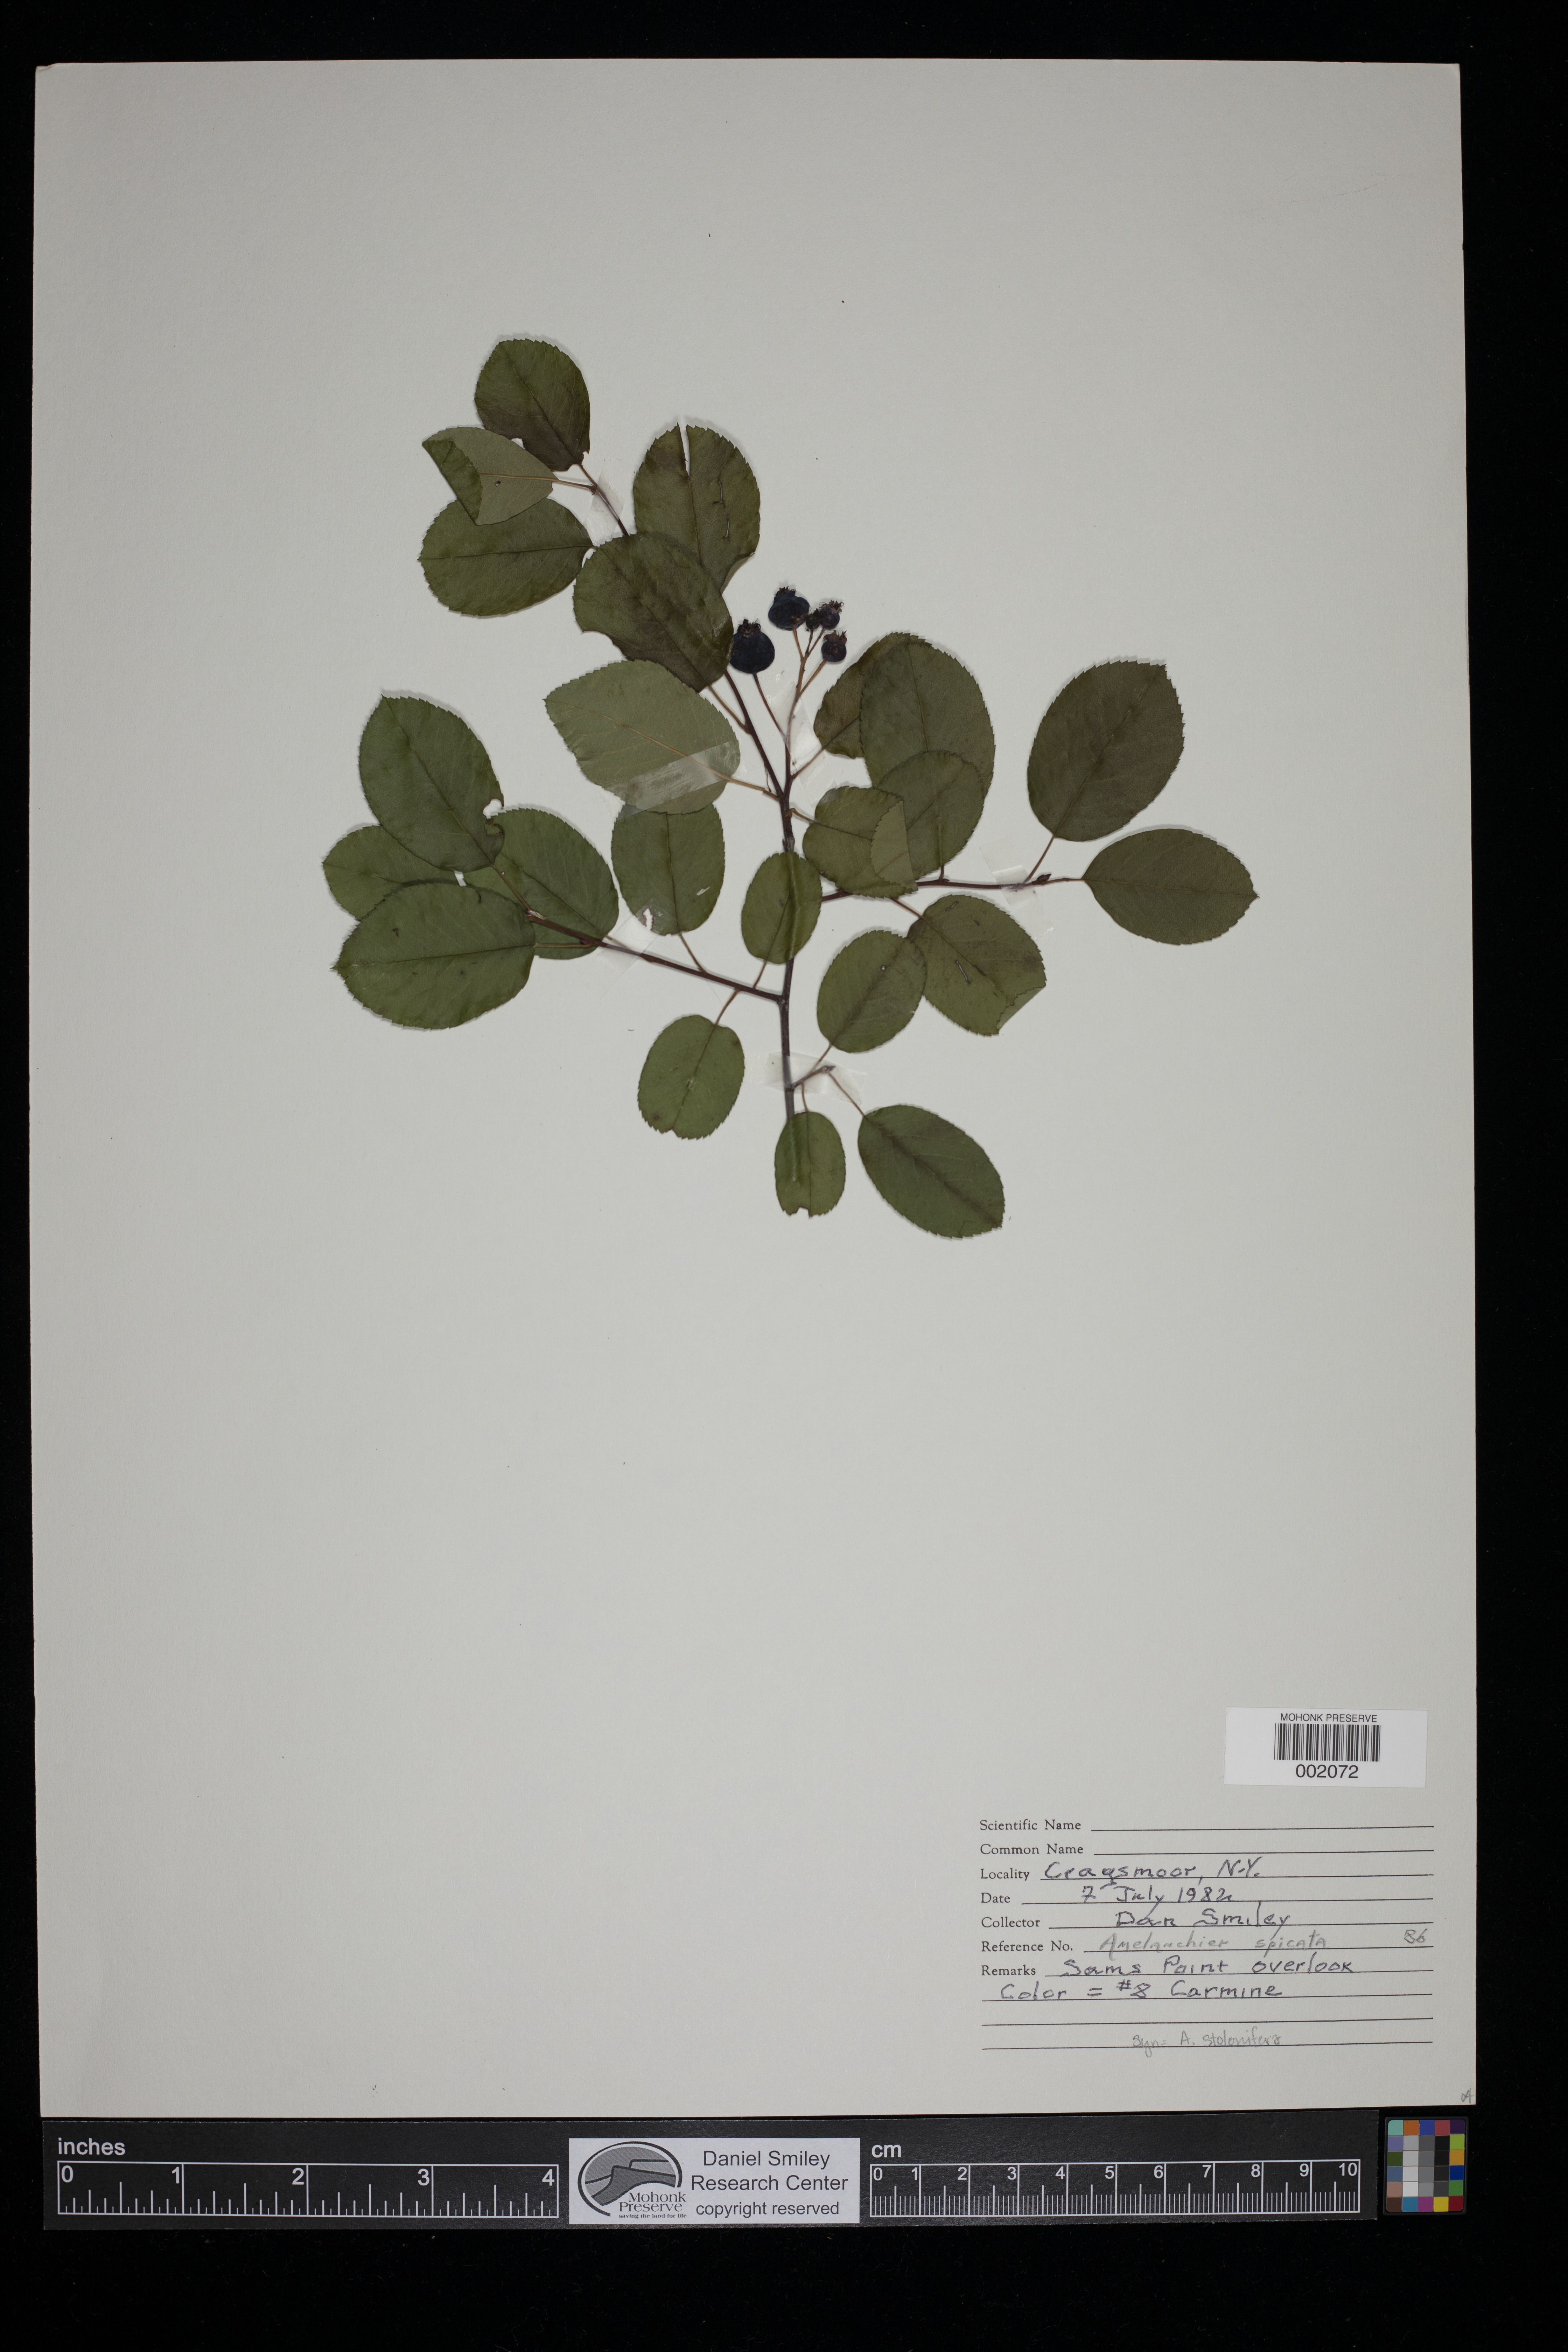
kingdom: Plantae
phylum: Tracheophyta
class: Magnoliopsida
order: Rosales
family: Rosaceae
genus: Amelanchier
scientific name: Amelanchier stolonifera
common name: Running serviceberry
